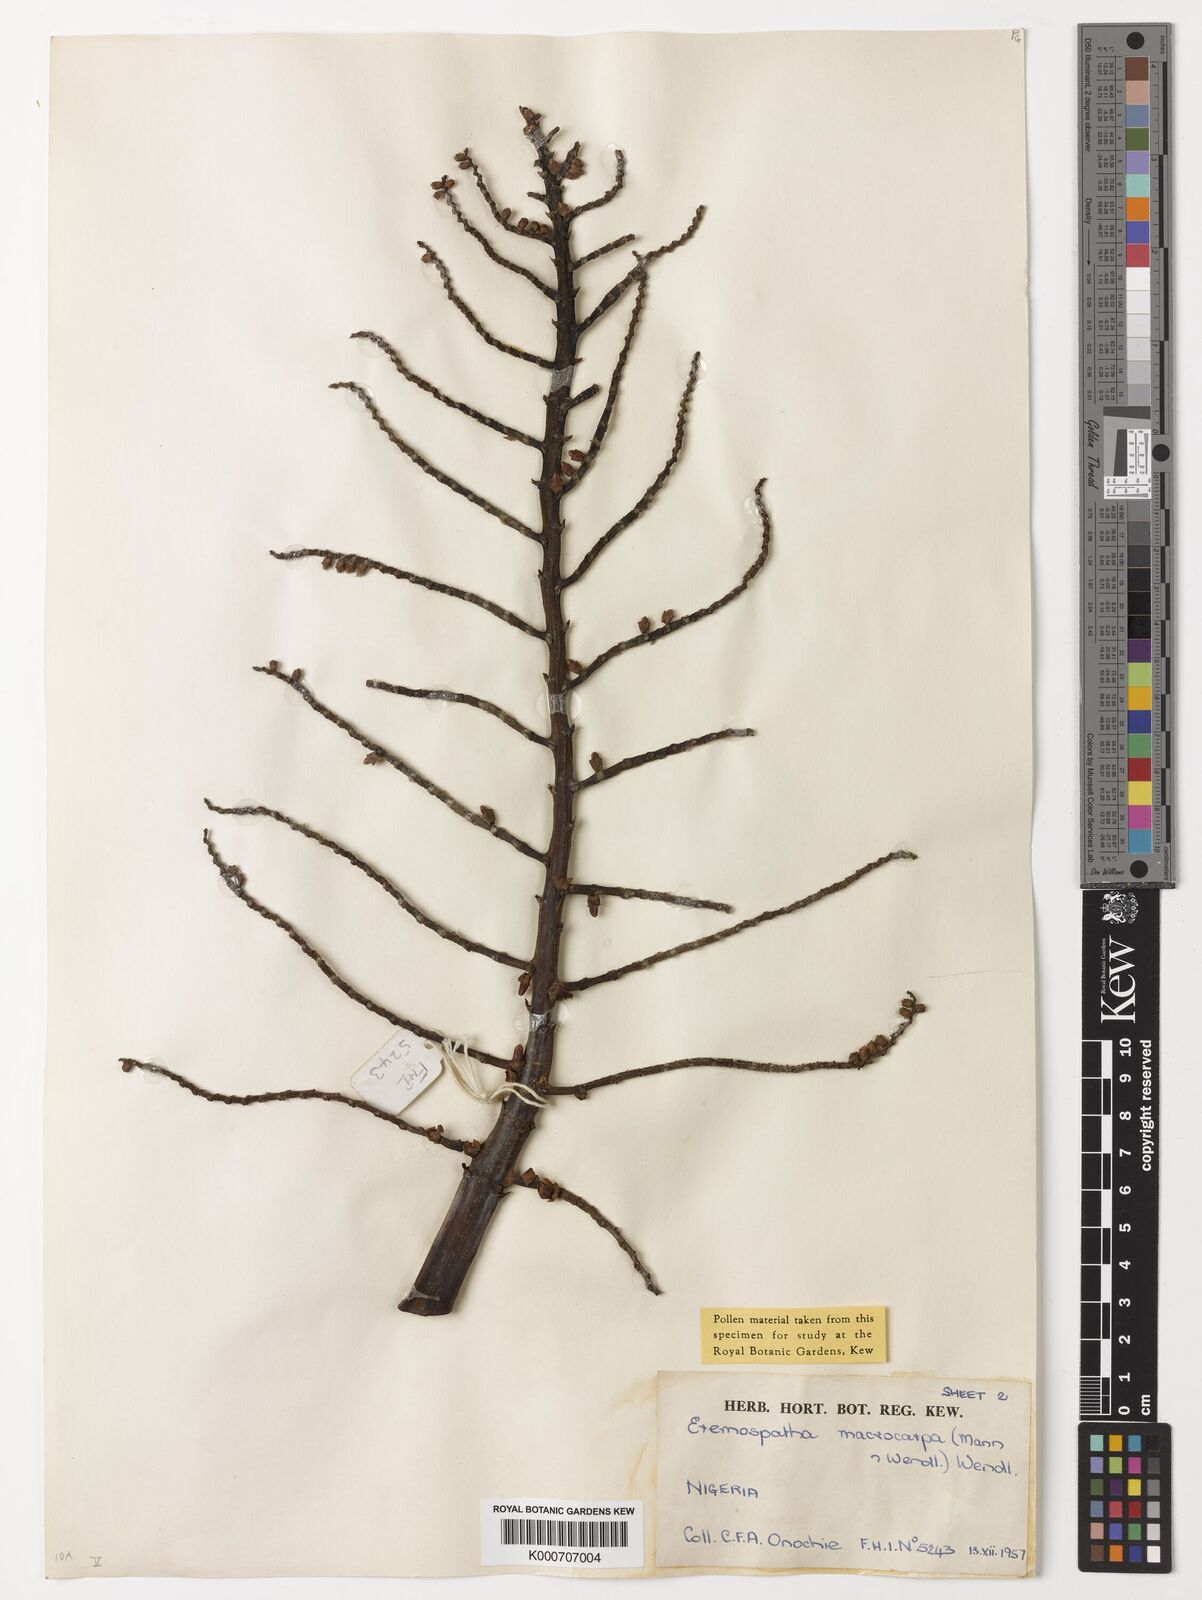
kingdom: Plantae
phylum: Tracheophyta
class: Liliopsida
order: Arecales
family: Arecaceae
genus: Eremospatha
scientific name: Eremospatha macrocarpa
